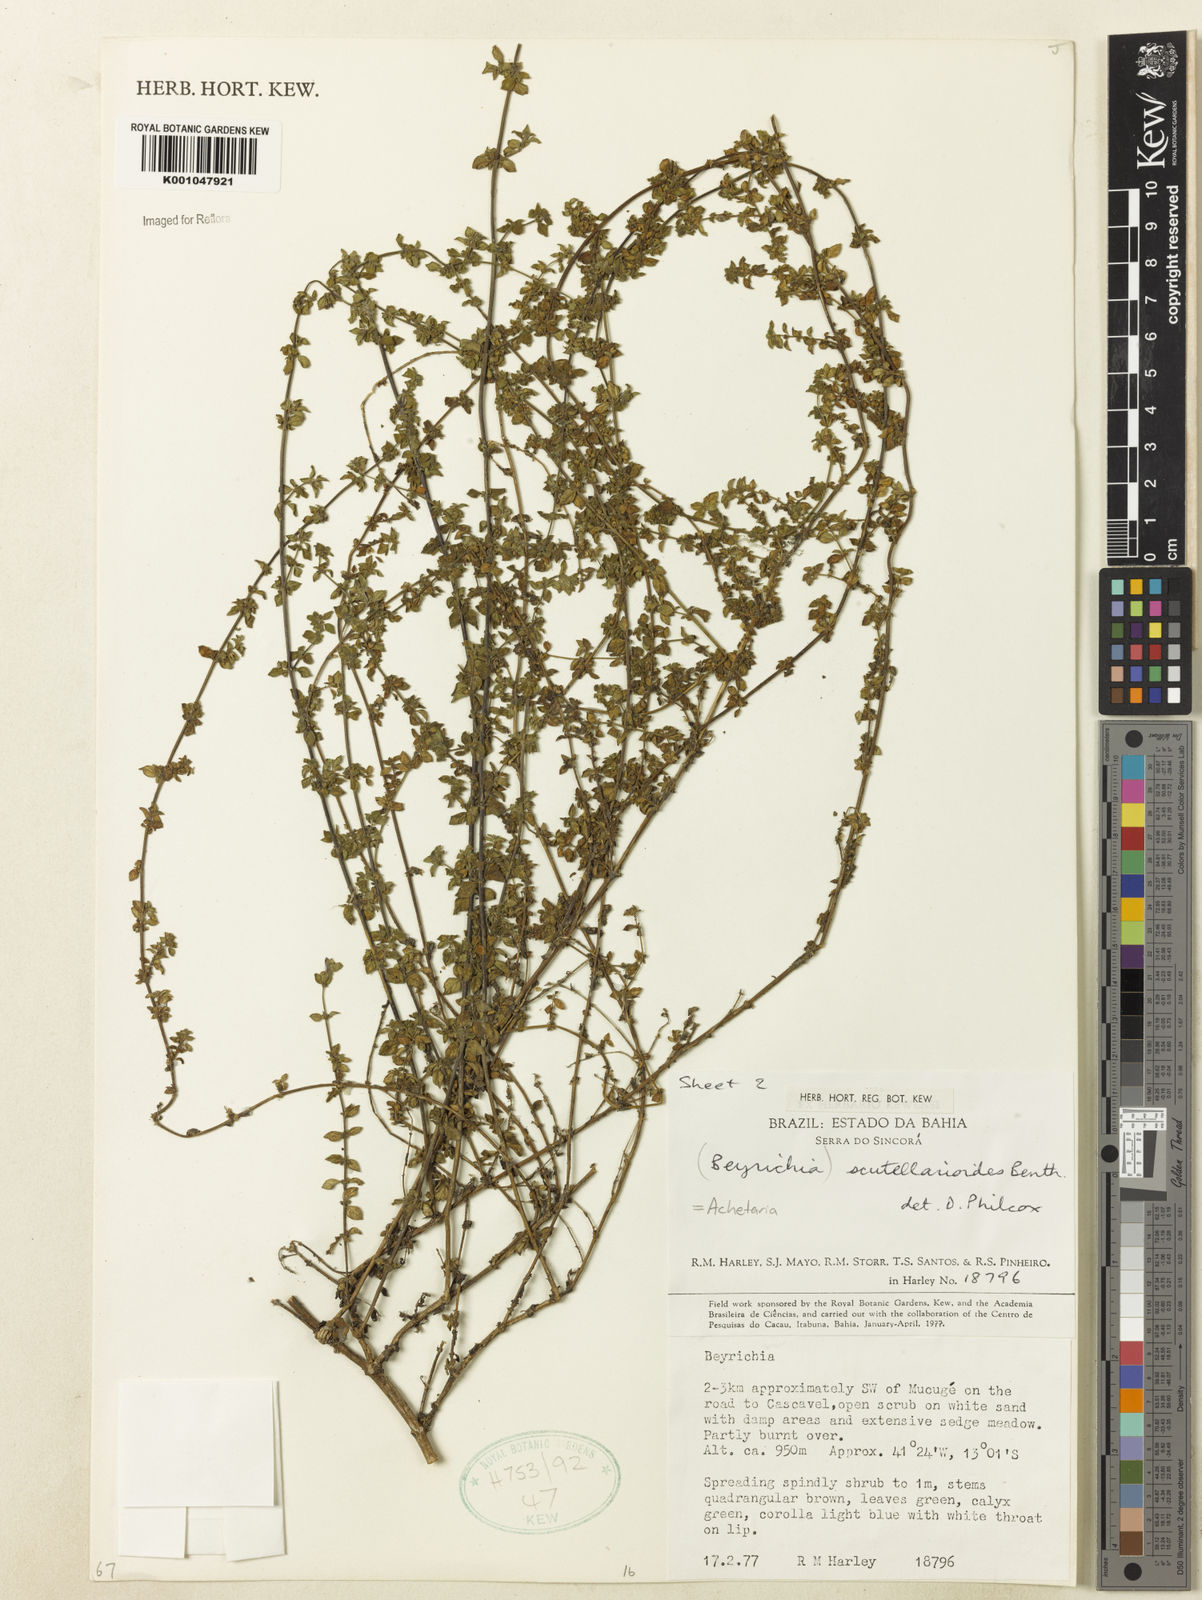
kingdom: Plantae
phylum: Tracheophyta
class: Magnoliopsida
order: Lamiales
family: Plantaginaceae
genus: Matourea
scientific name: Matourea scutellarioides
